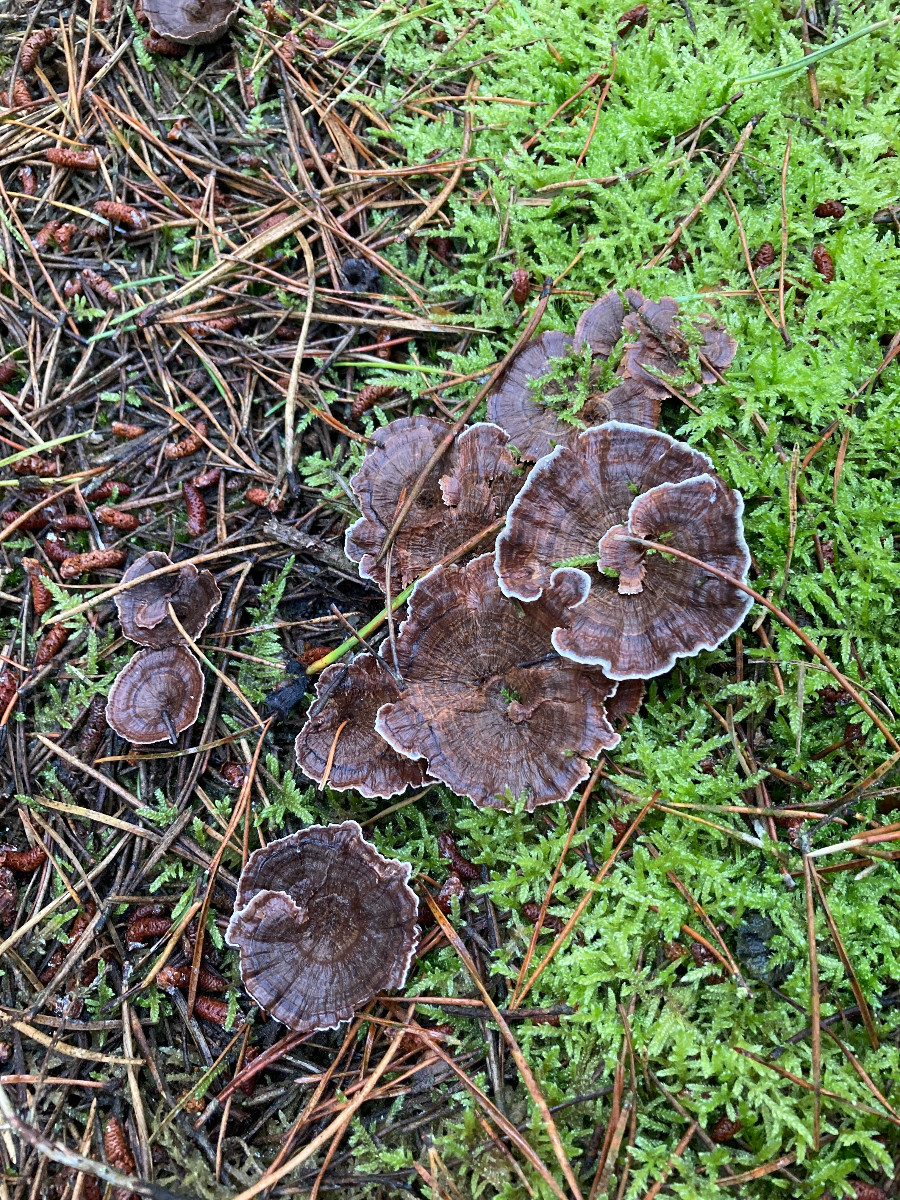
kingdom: Fungi
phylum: Basidiomycota
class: Agaricomycetes
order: Thelephorales
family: Bankeraceae
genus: Hydnellum
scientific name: Hydnellum concrescens
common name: Zoned tooth
